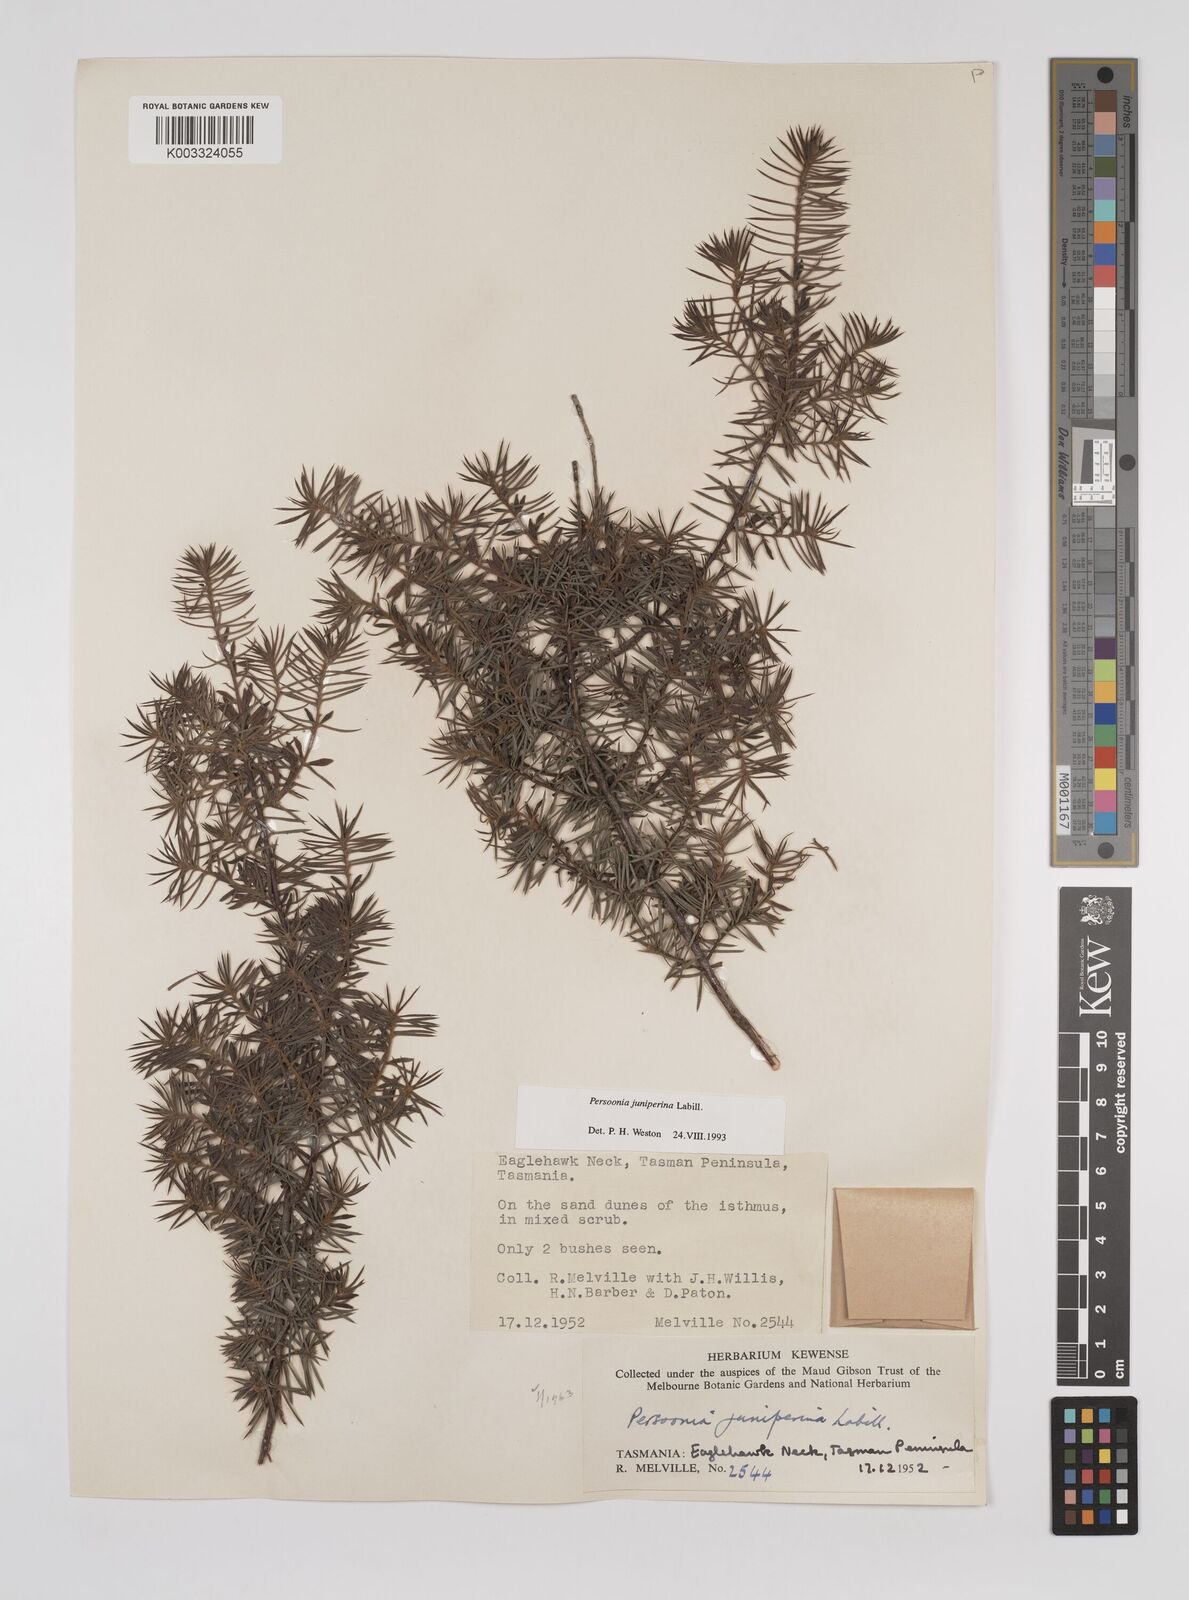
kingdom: Plantae
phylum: Tracheophyta
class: Magnoliopsida
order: Proteales
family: Proteaceae
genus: Persoonia
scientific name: Persoonia juniperina
